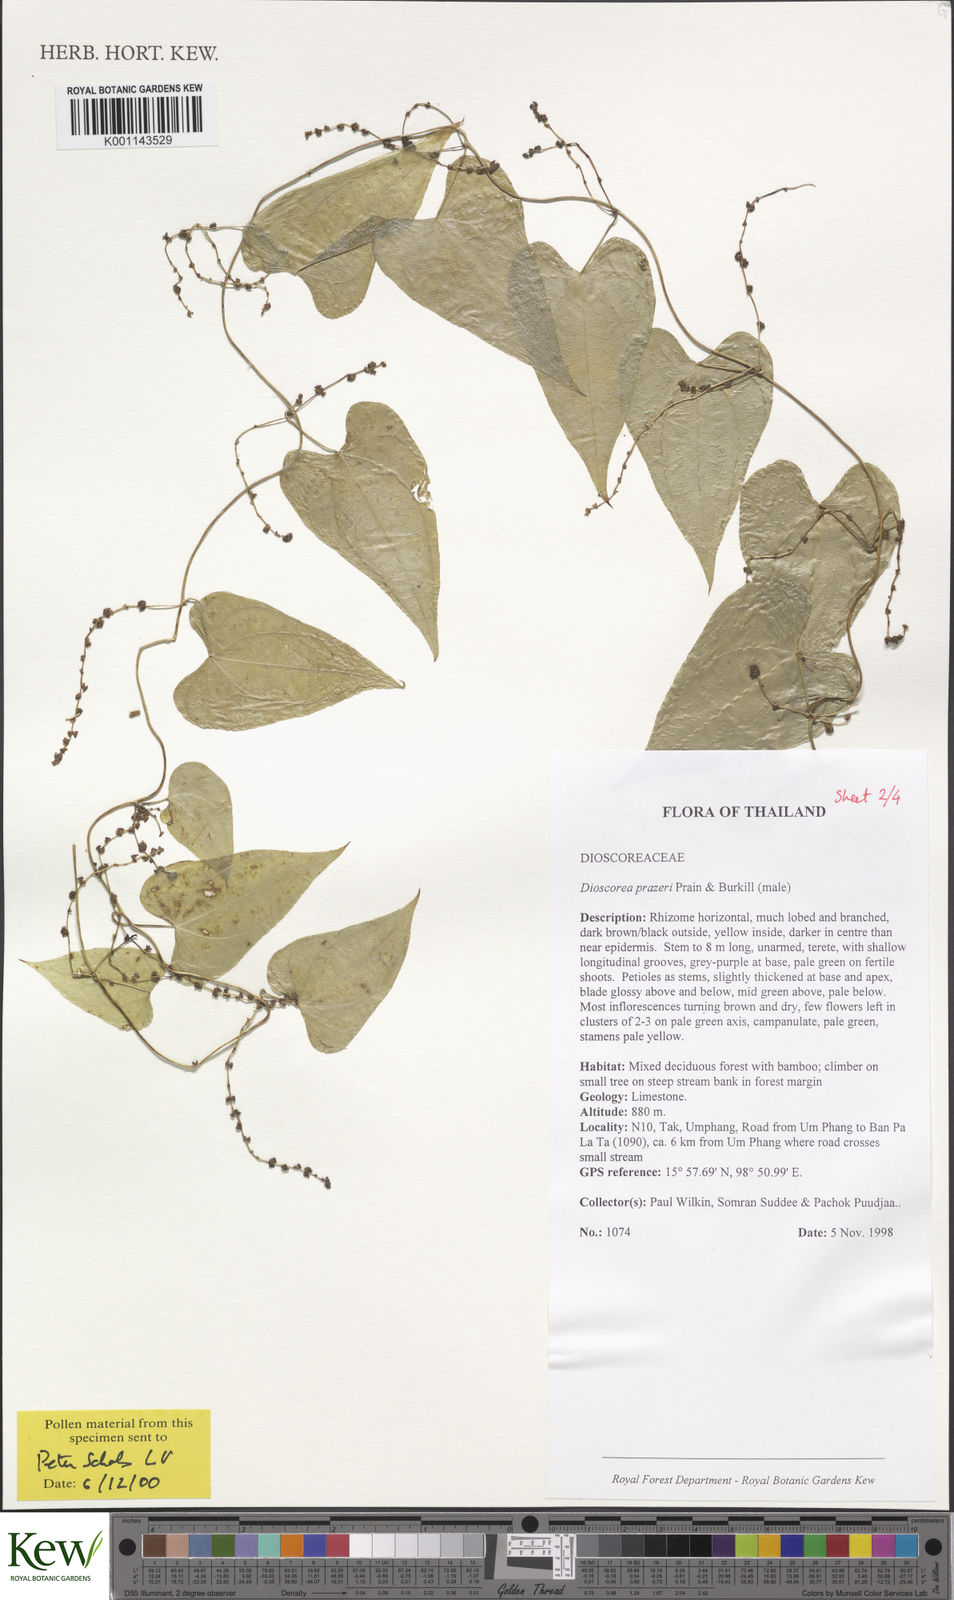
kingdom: Plantae
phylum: Tracheophyta
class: Liliopsida
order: Dioscoreales
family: Dioscoreaceae
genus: Dioscorea
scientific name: Dioscorea prazeri
